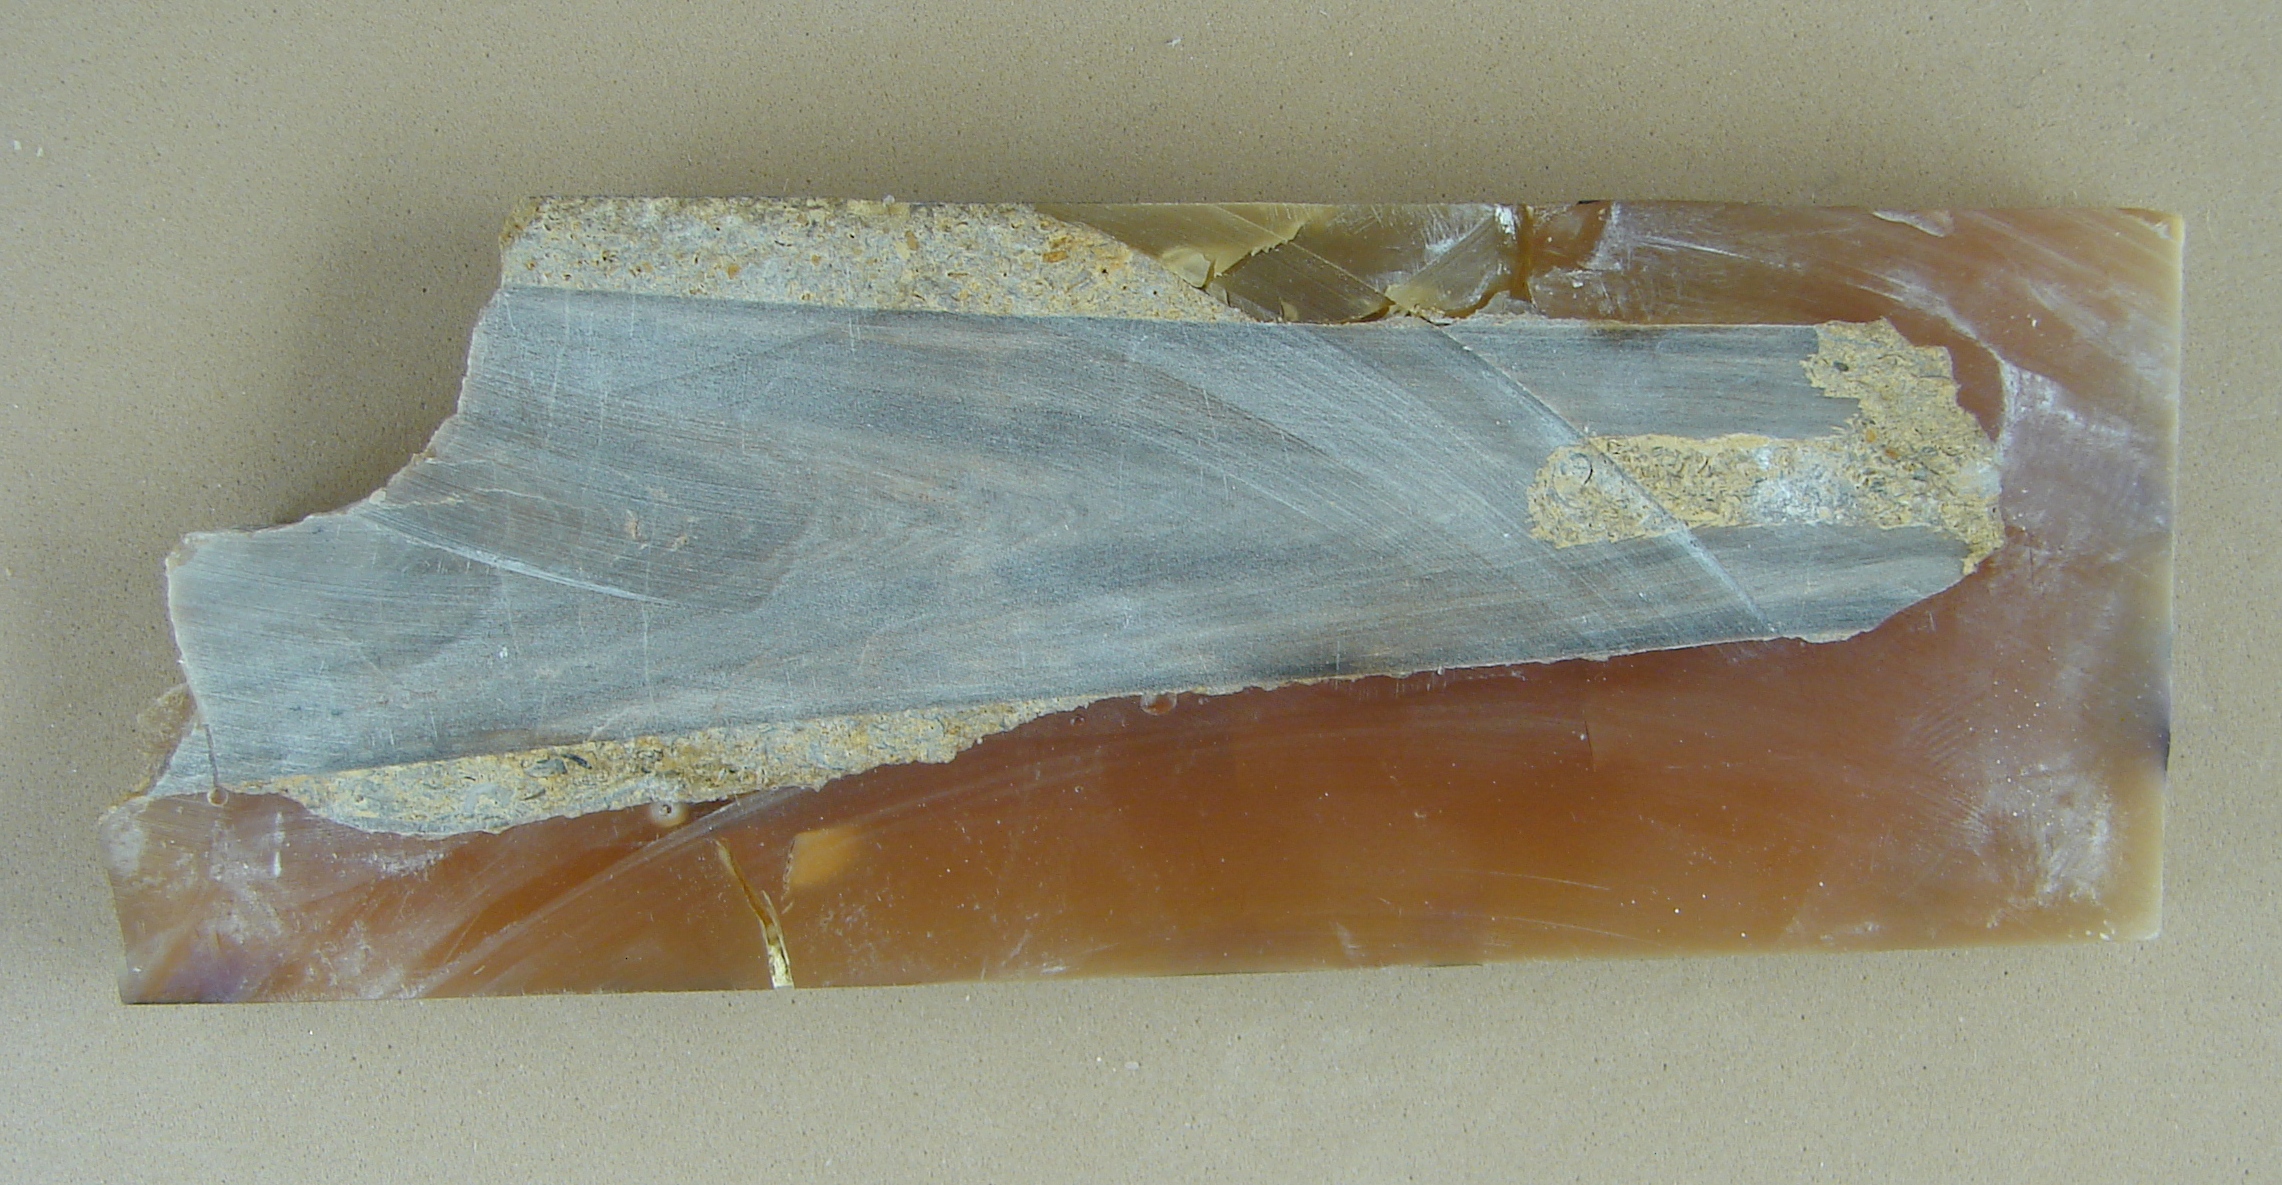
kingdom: Animalia
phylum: Mollusca
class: Cephalopoda
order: Belemnitida
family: Megateuthididae
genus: Megateuthis
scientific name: Megateuthis
